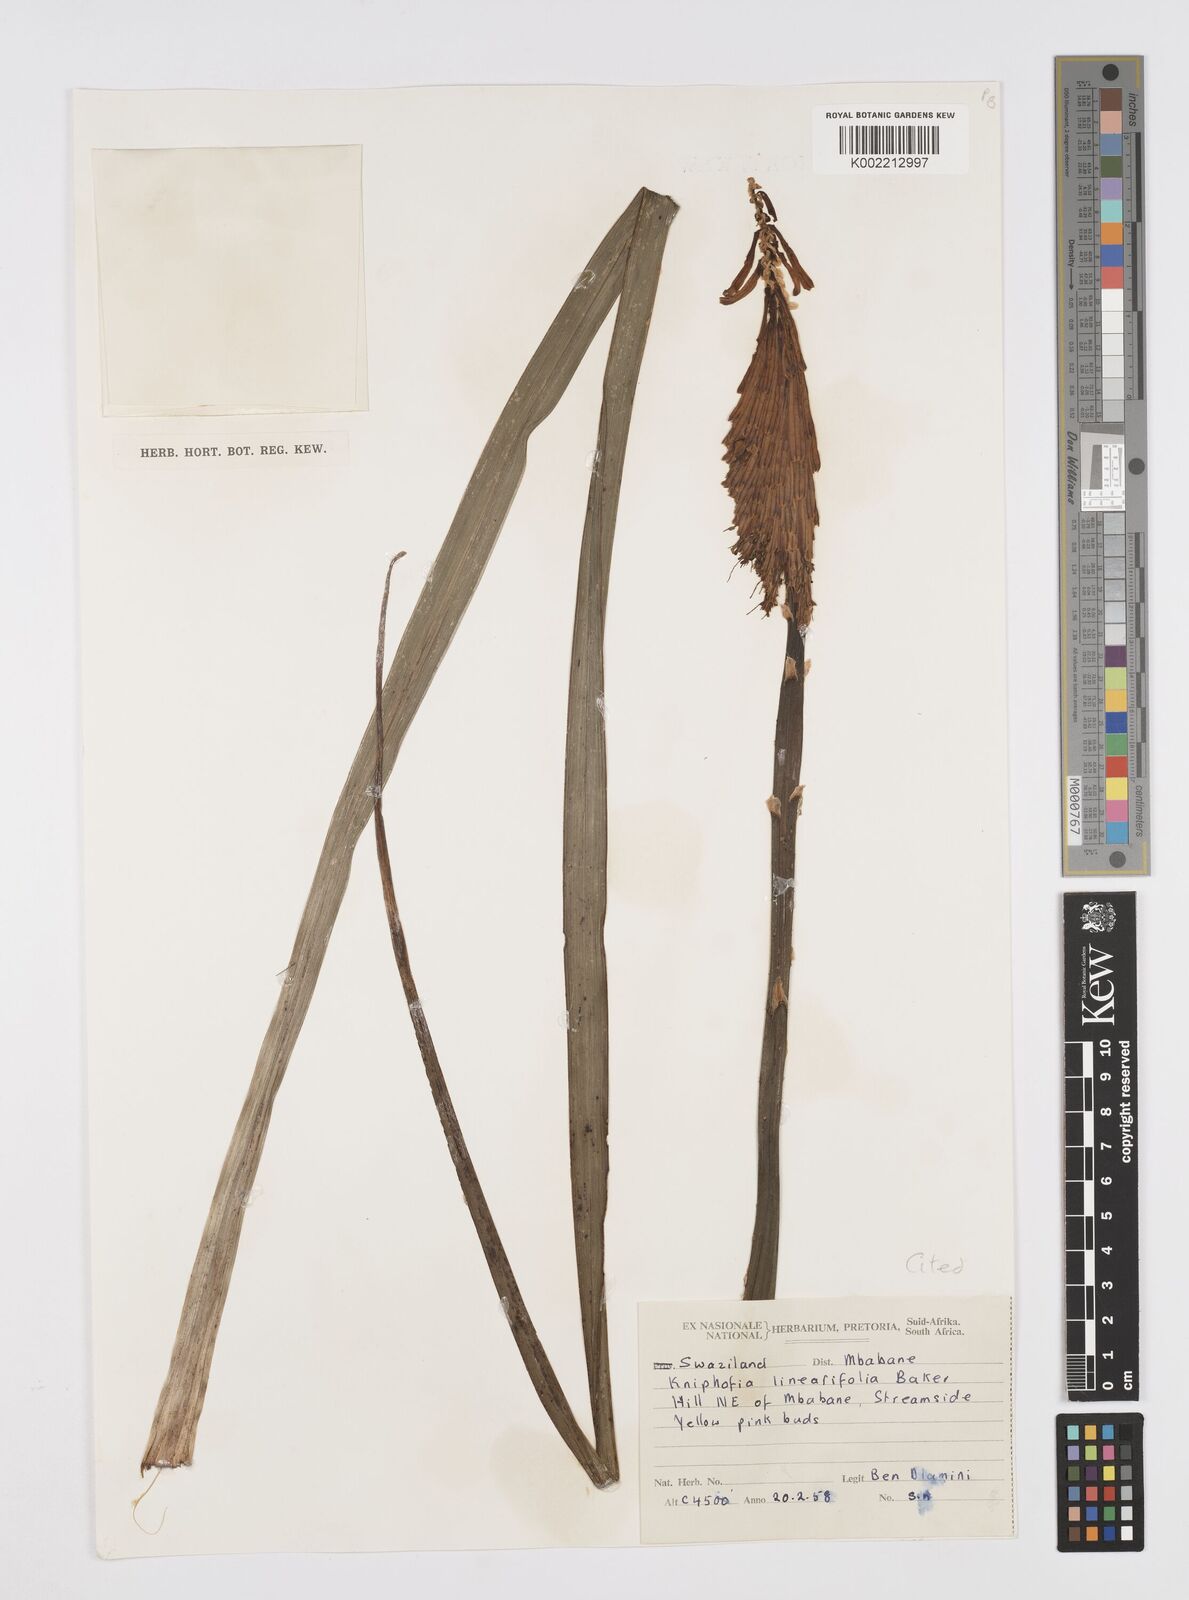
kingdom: Plantae
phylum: Tracheophyta
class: Liliopsida
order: Asparagales
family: Asphodelaceae
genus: Kniphofia
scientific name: Kniphofia linearifolia
